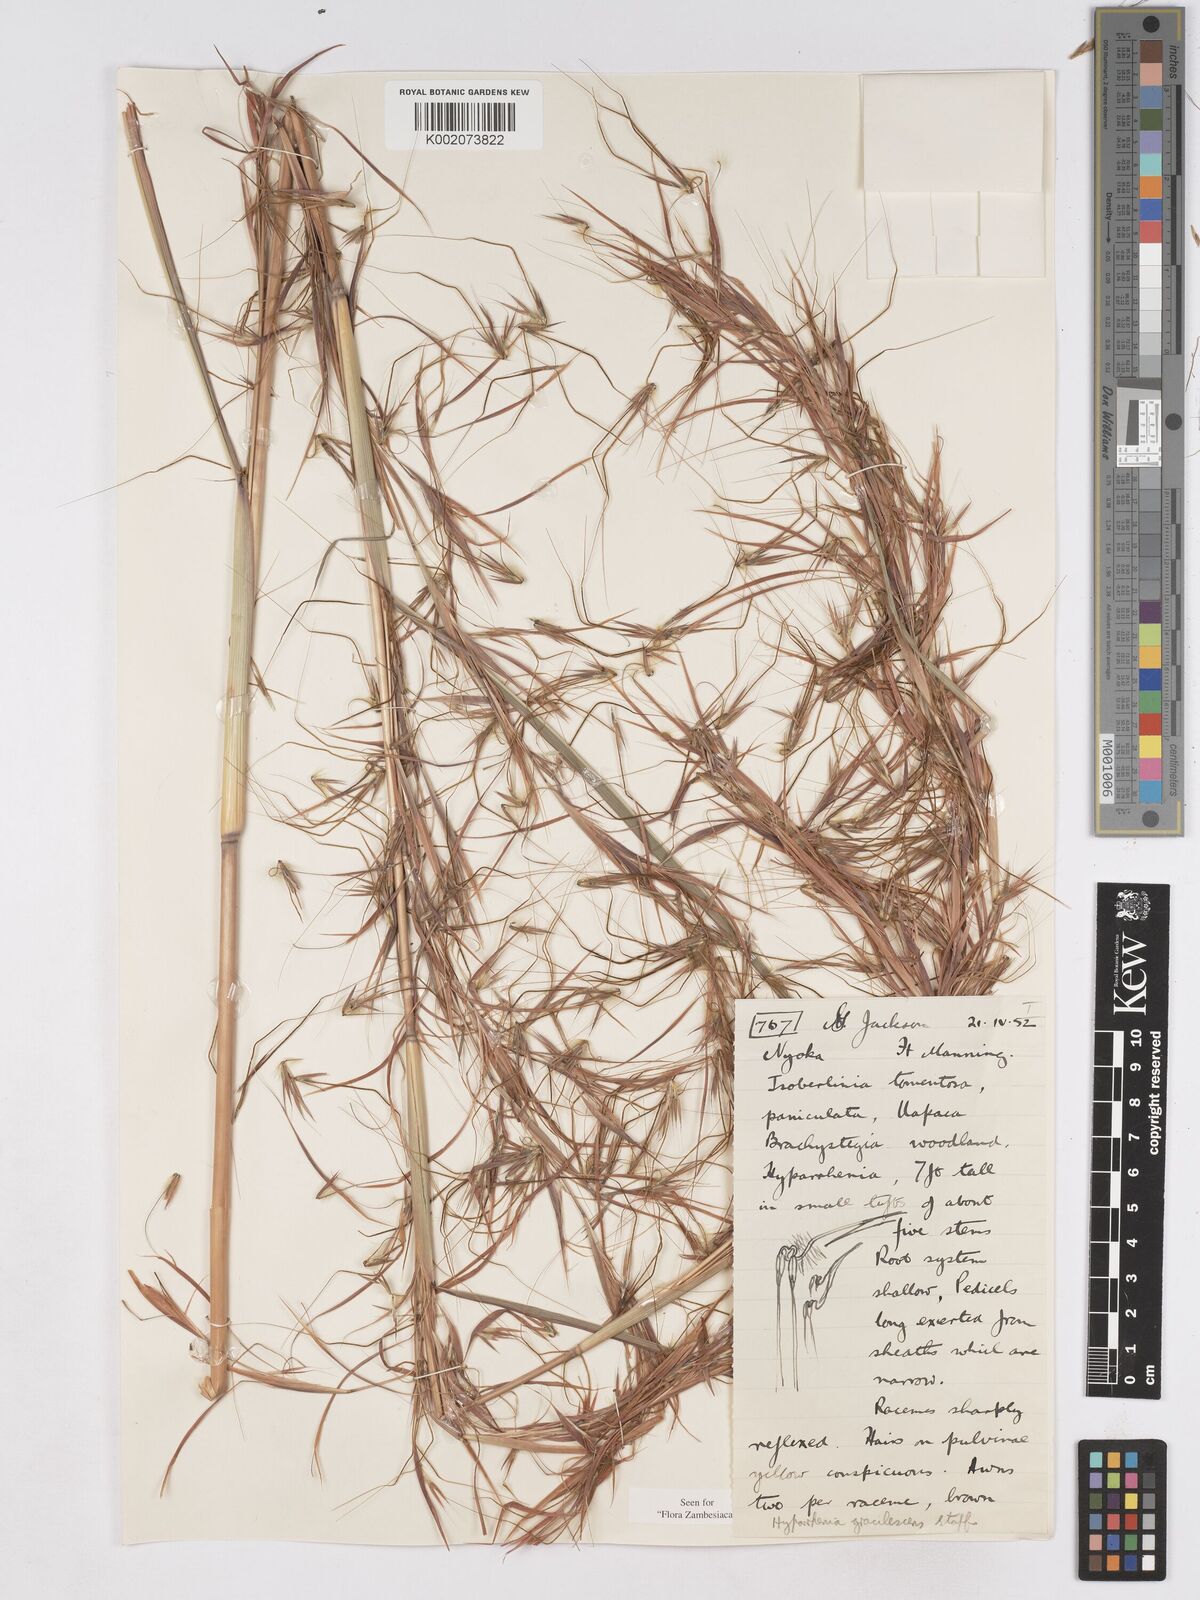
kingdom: Plantae
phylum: Tracheophyta
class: Liliopsida
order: Poales
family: Poaceae
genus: Hyparrhenia
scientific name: Hyparrhenia welwitschii
